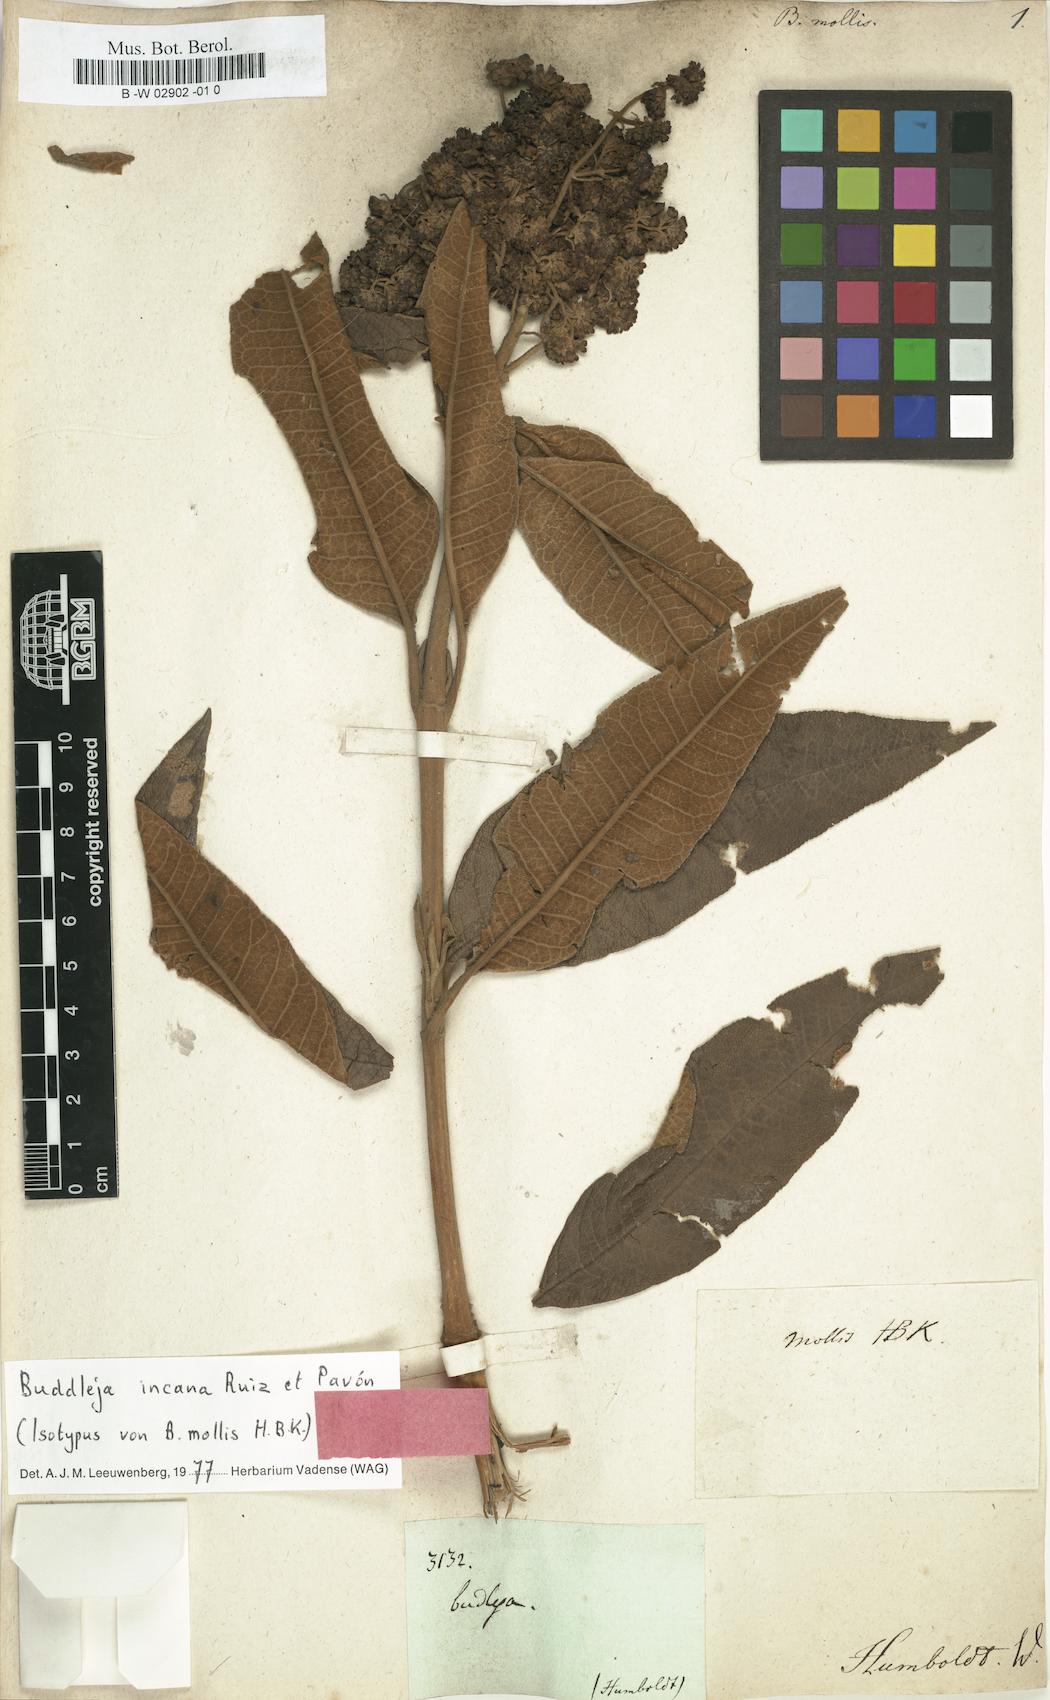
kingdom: Plantae
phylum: Tracheophyta
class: Magnoliopsida
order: Lamiales
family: Scrophulariaceae
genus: Buddleja
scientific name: Buddleja bullata
